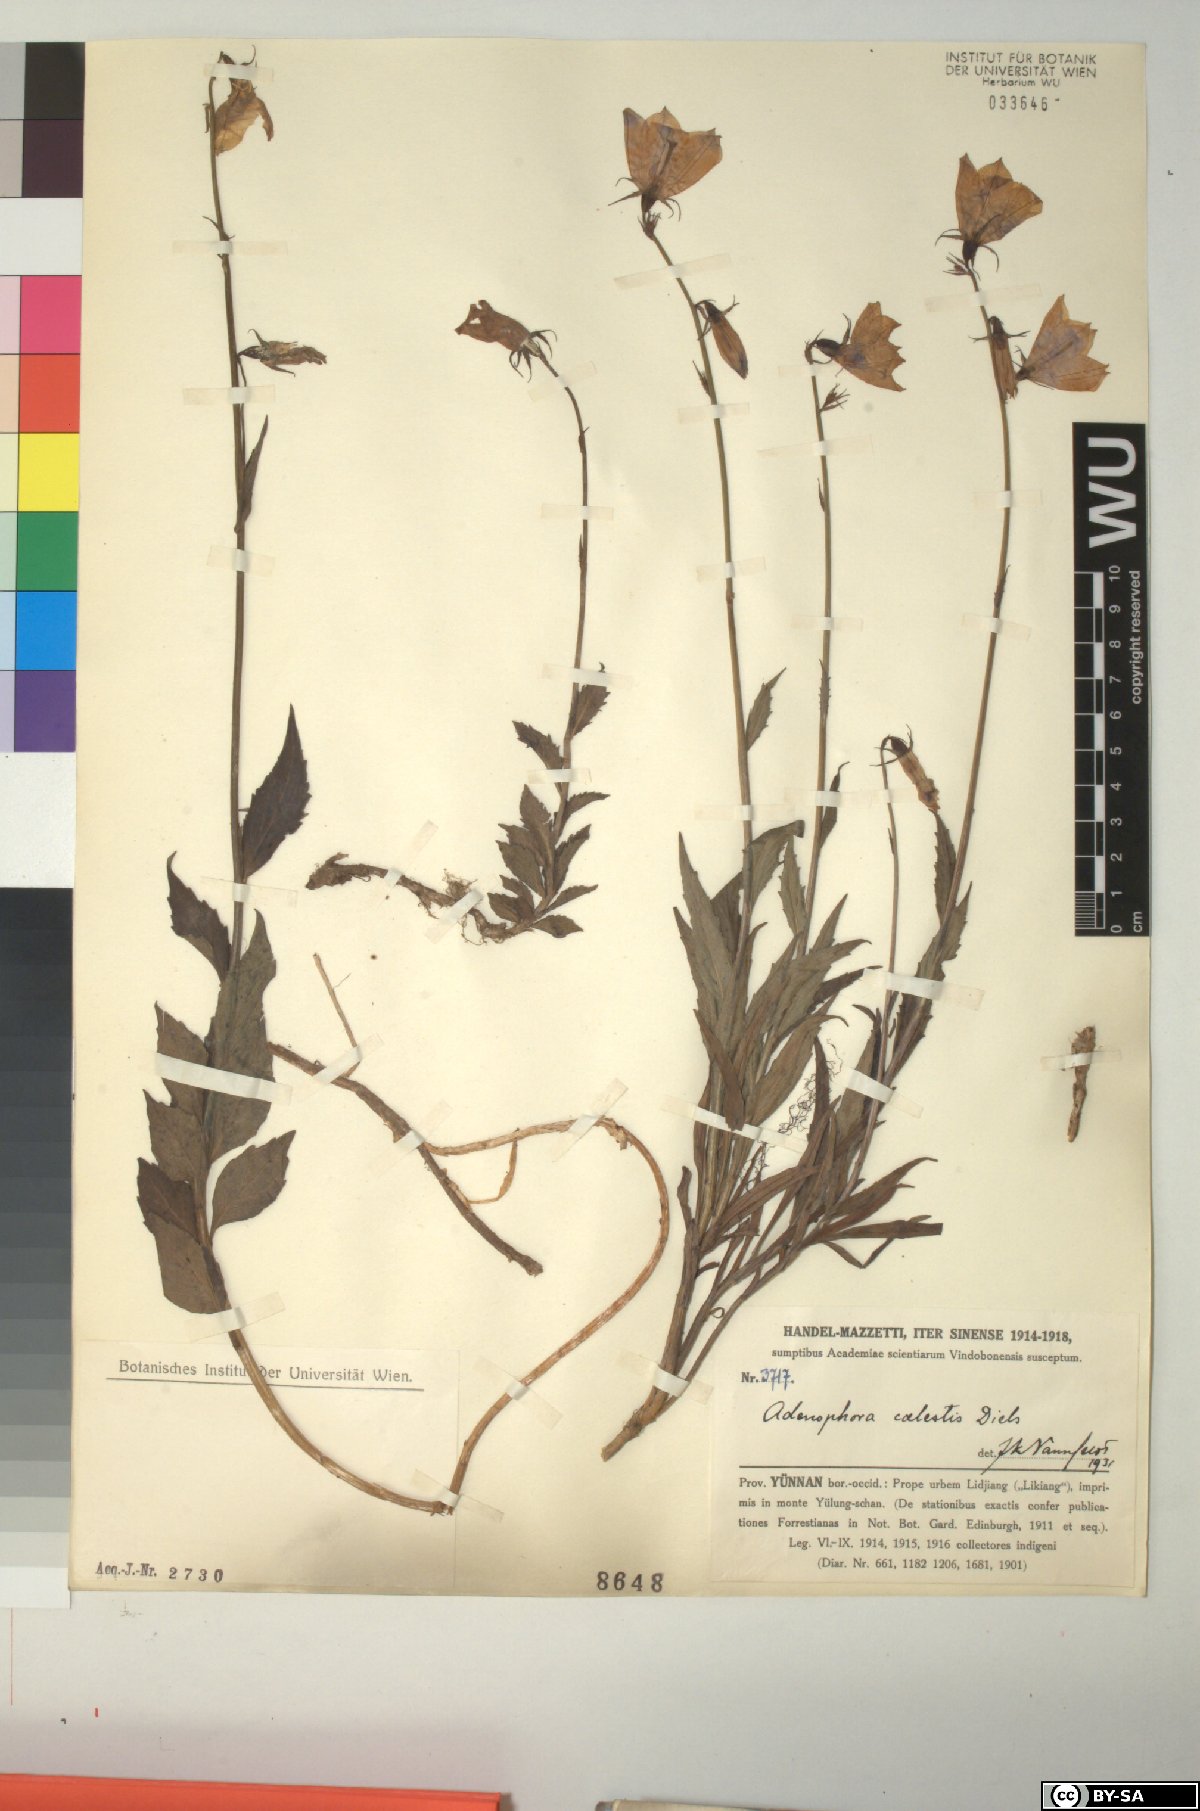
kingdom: Plantae
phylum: Tracheophyta
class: Magnoliopsida
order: Asterales
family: Campanulaceae
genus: Adenophora
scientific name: Adenophora coelestis
